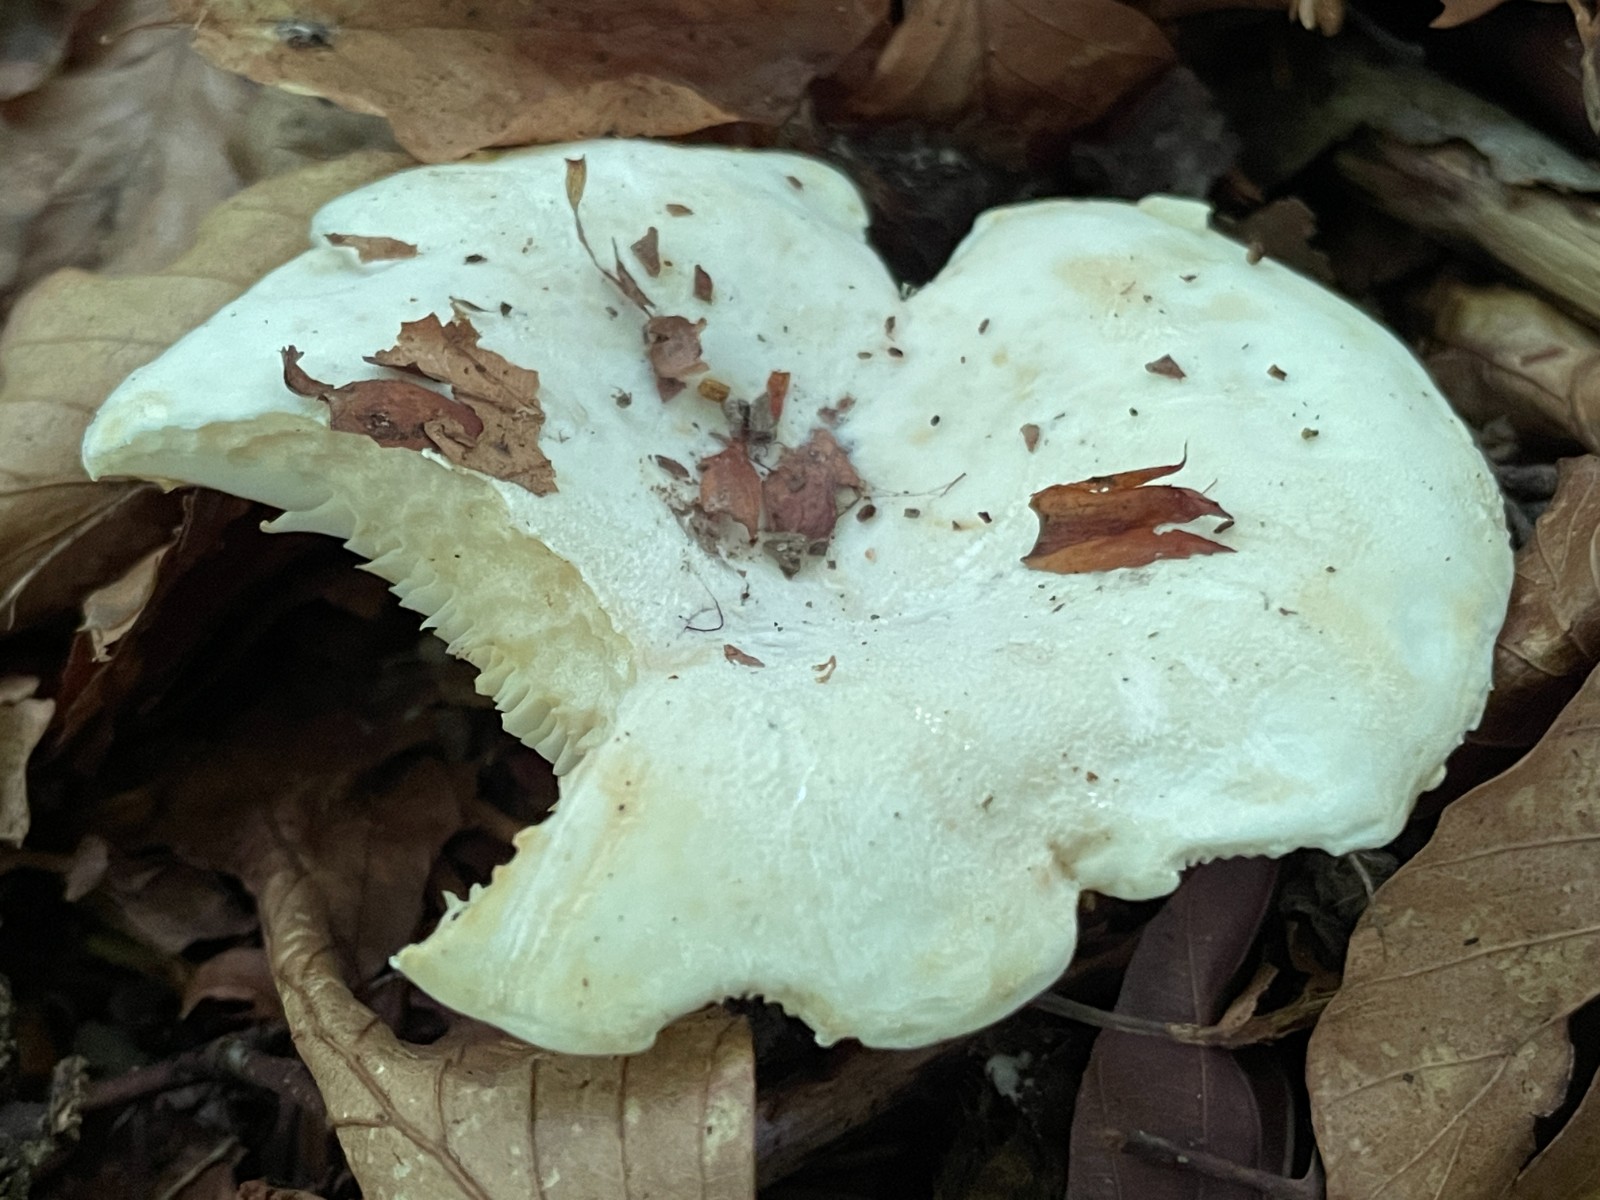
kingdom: Fungi
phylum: Basidiomycota
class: Agaricomycetes
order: Russulales
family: Russulaceae
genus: Lactifluus
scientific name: Lactifluus vellereus
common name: hvidfiltet mælkehat
